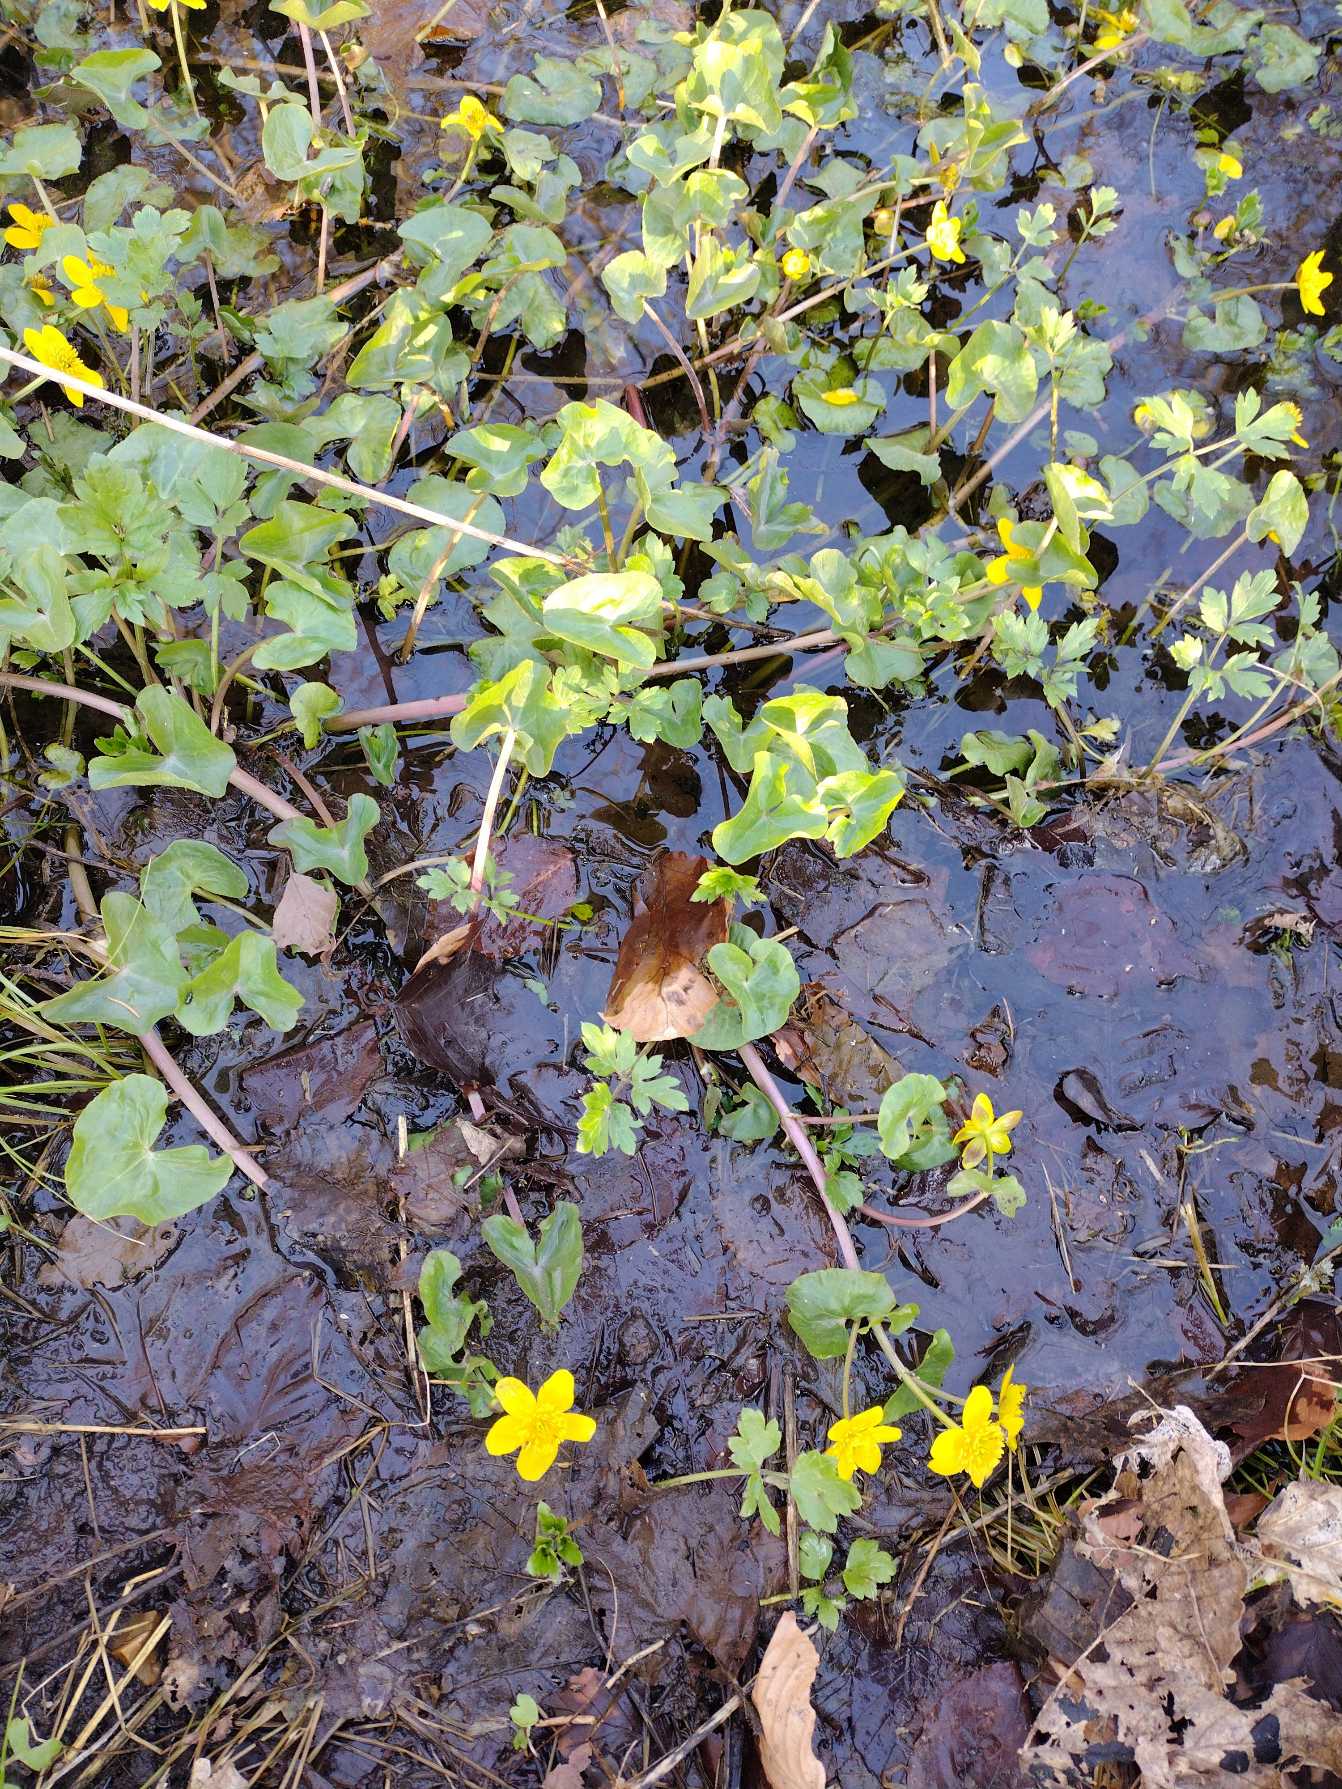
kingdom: Plantae
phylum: Tracheophyta
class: Magnoliopsida
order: Ranunculales
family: Ranunculaceae
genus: Caltha
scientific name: Caltha palustris
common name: Eng-kabbeleje
